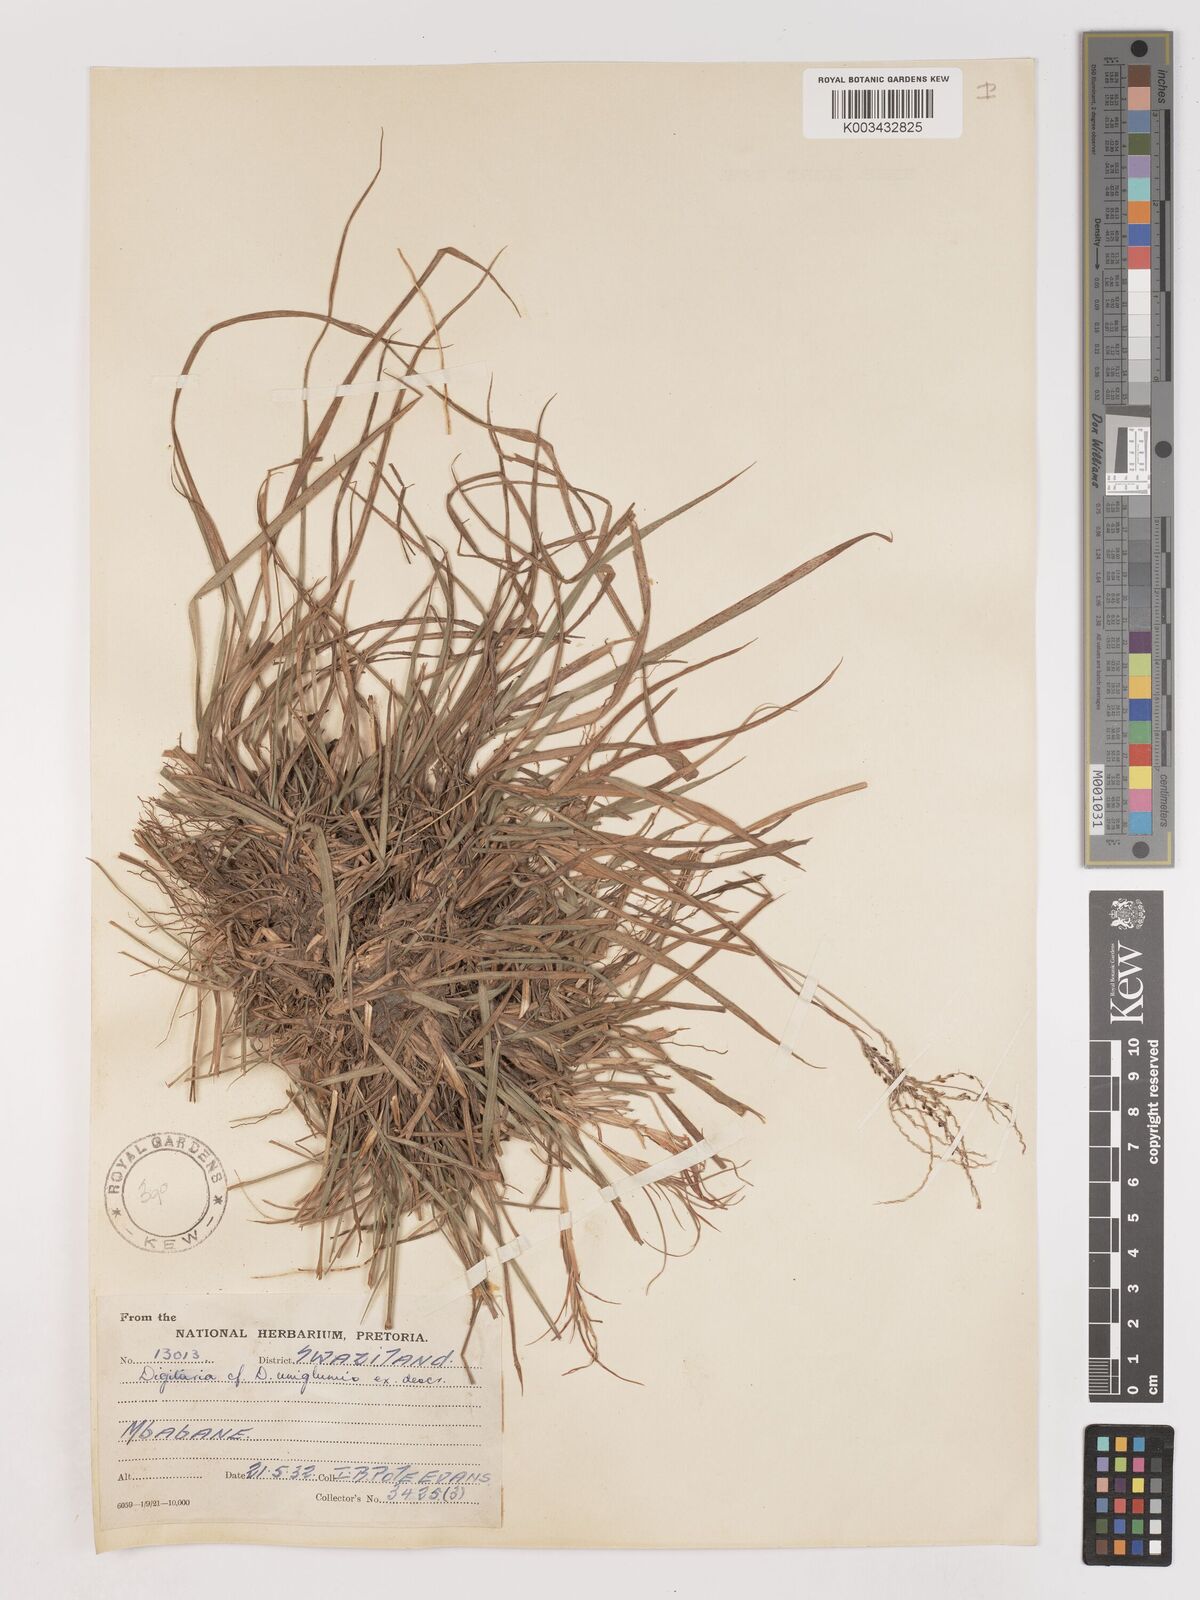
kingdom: Plantae
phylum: Tracheophyta
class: Liliopsida
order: Poales
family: Poaceae
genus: Digitaria
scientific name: Digitaria maitlandii
